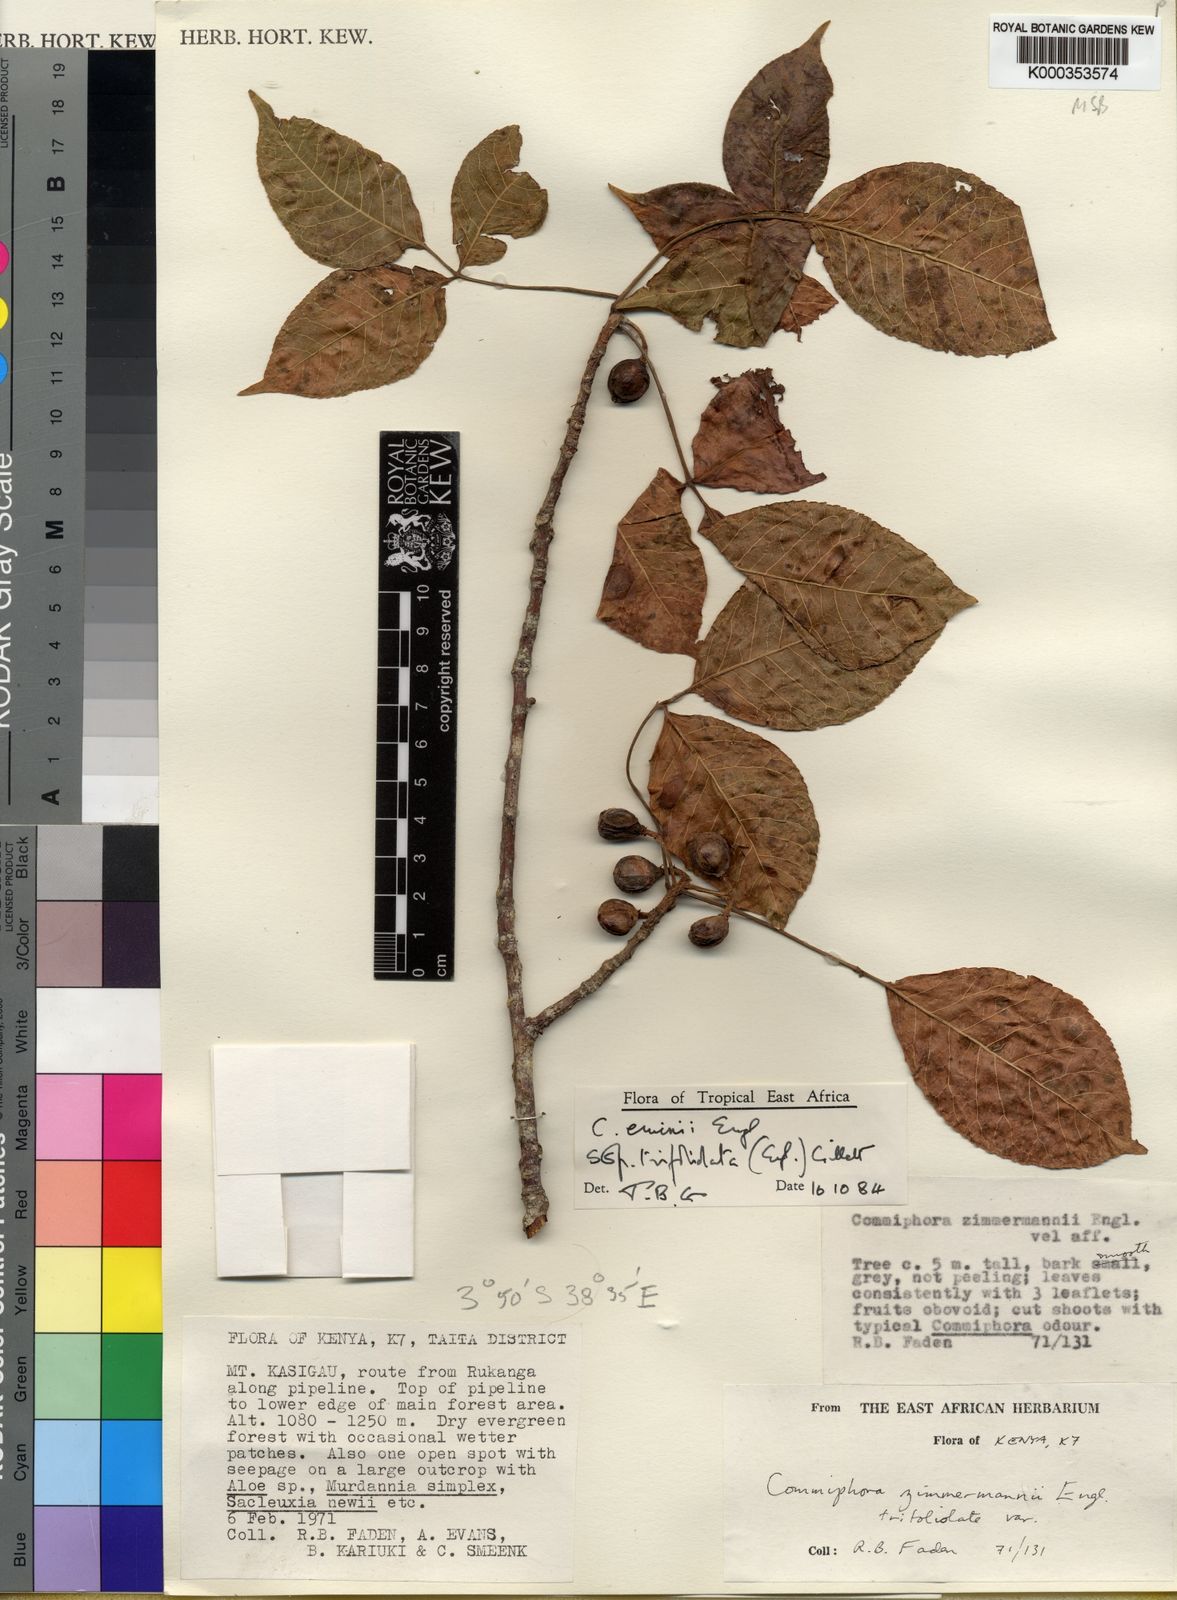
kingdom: Plantae
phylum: Tracheophyta
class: Magnoliopsida
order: Sapindales
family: Burseraceae
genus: Commiphora
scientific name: Commiphora eminii
